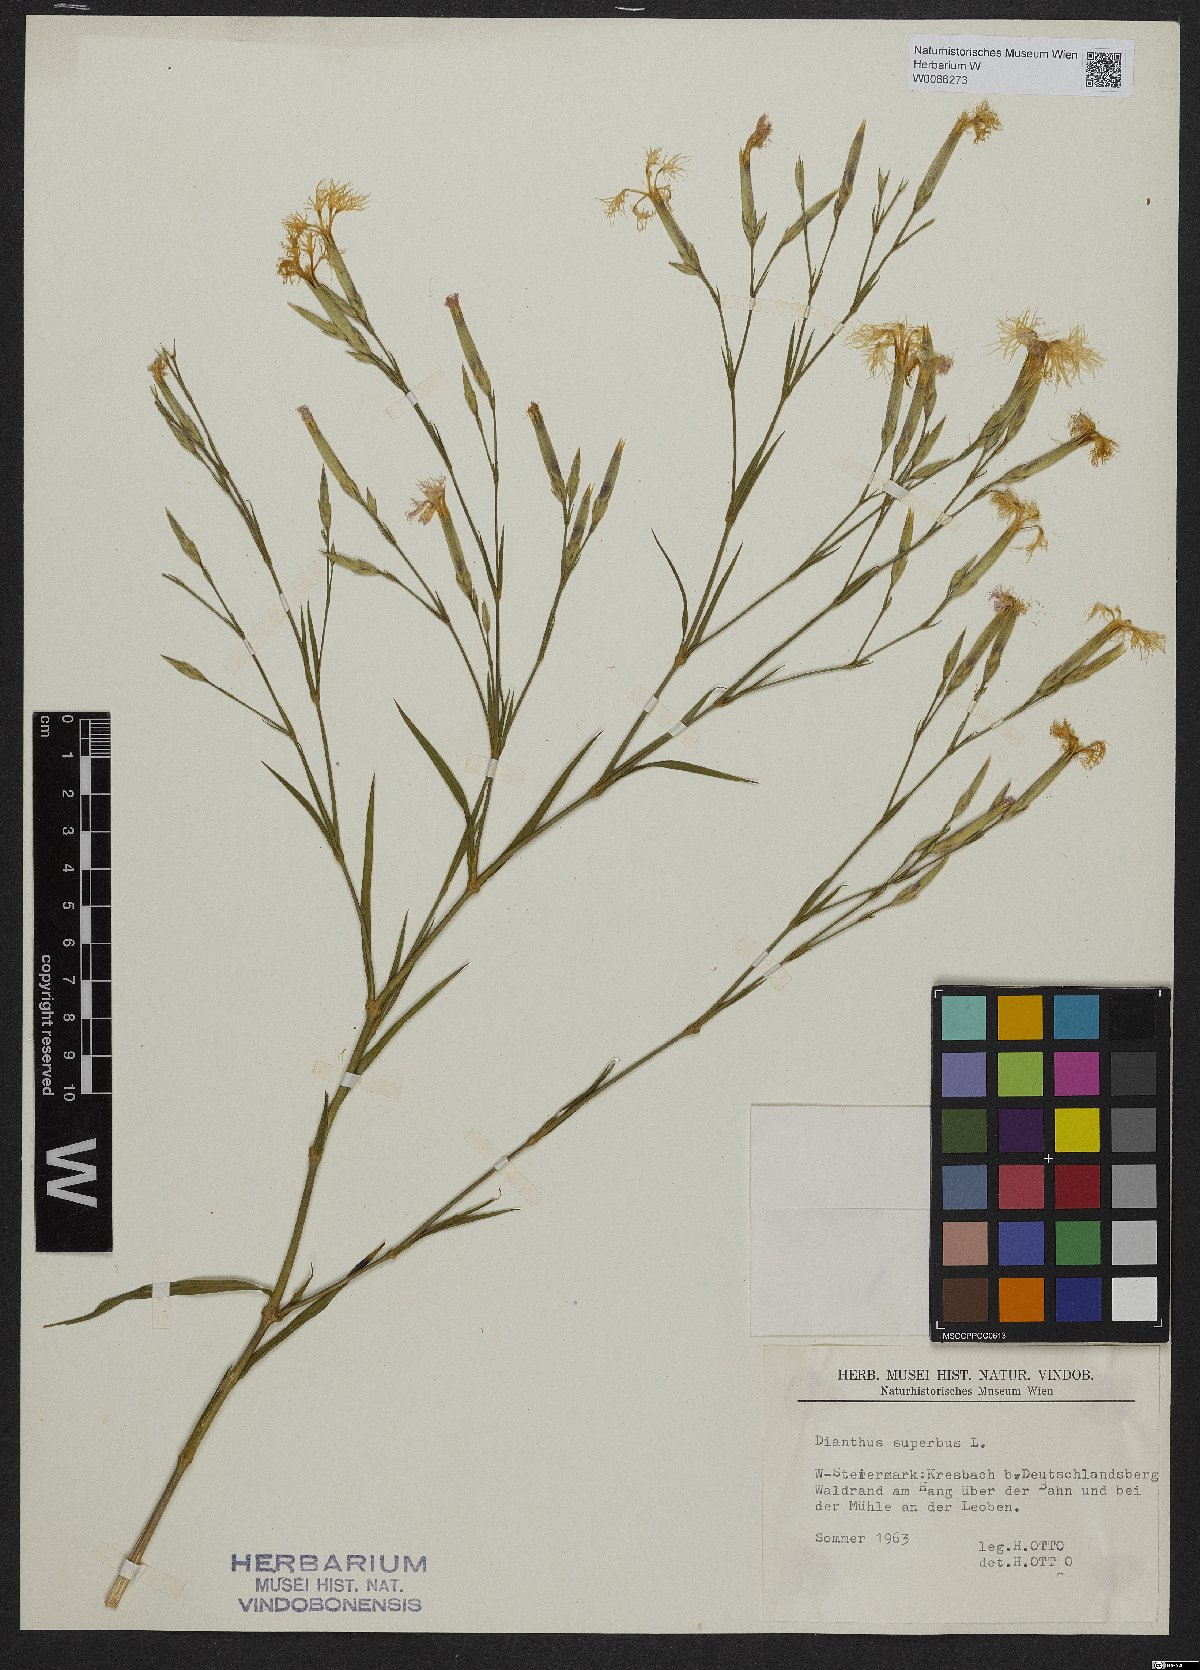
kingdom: Plantae
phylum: Tracheophyta
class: Magnoliopsida
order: Caryophyllales
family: Caryophyllaceae
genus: Dianthus
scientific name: Dianthus superbus
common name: Fringed pink
